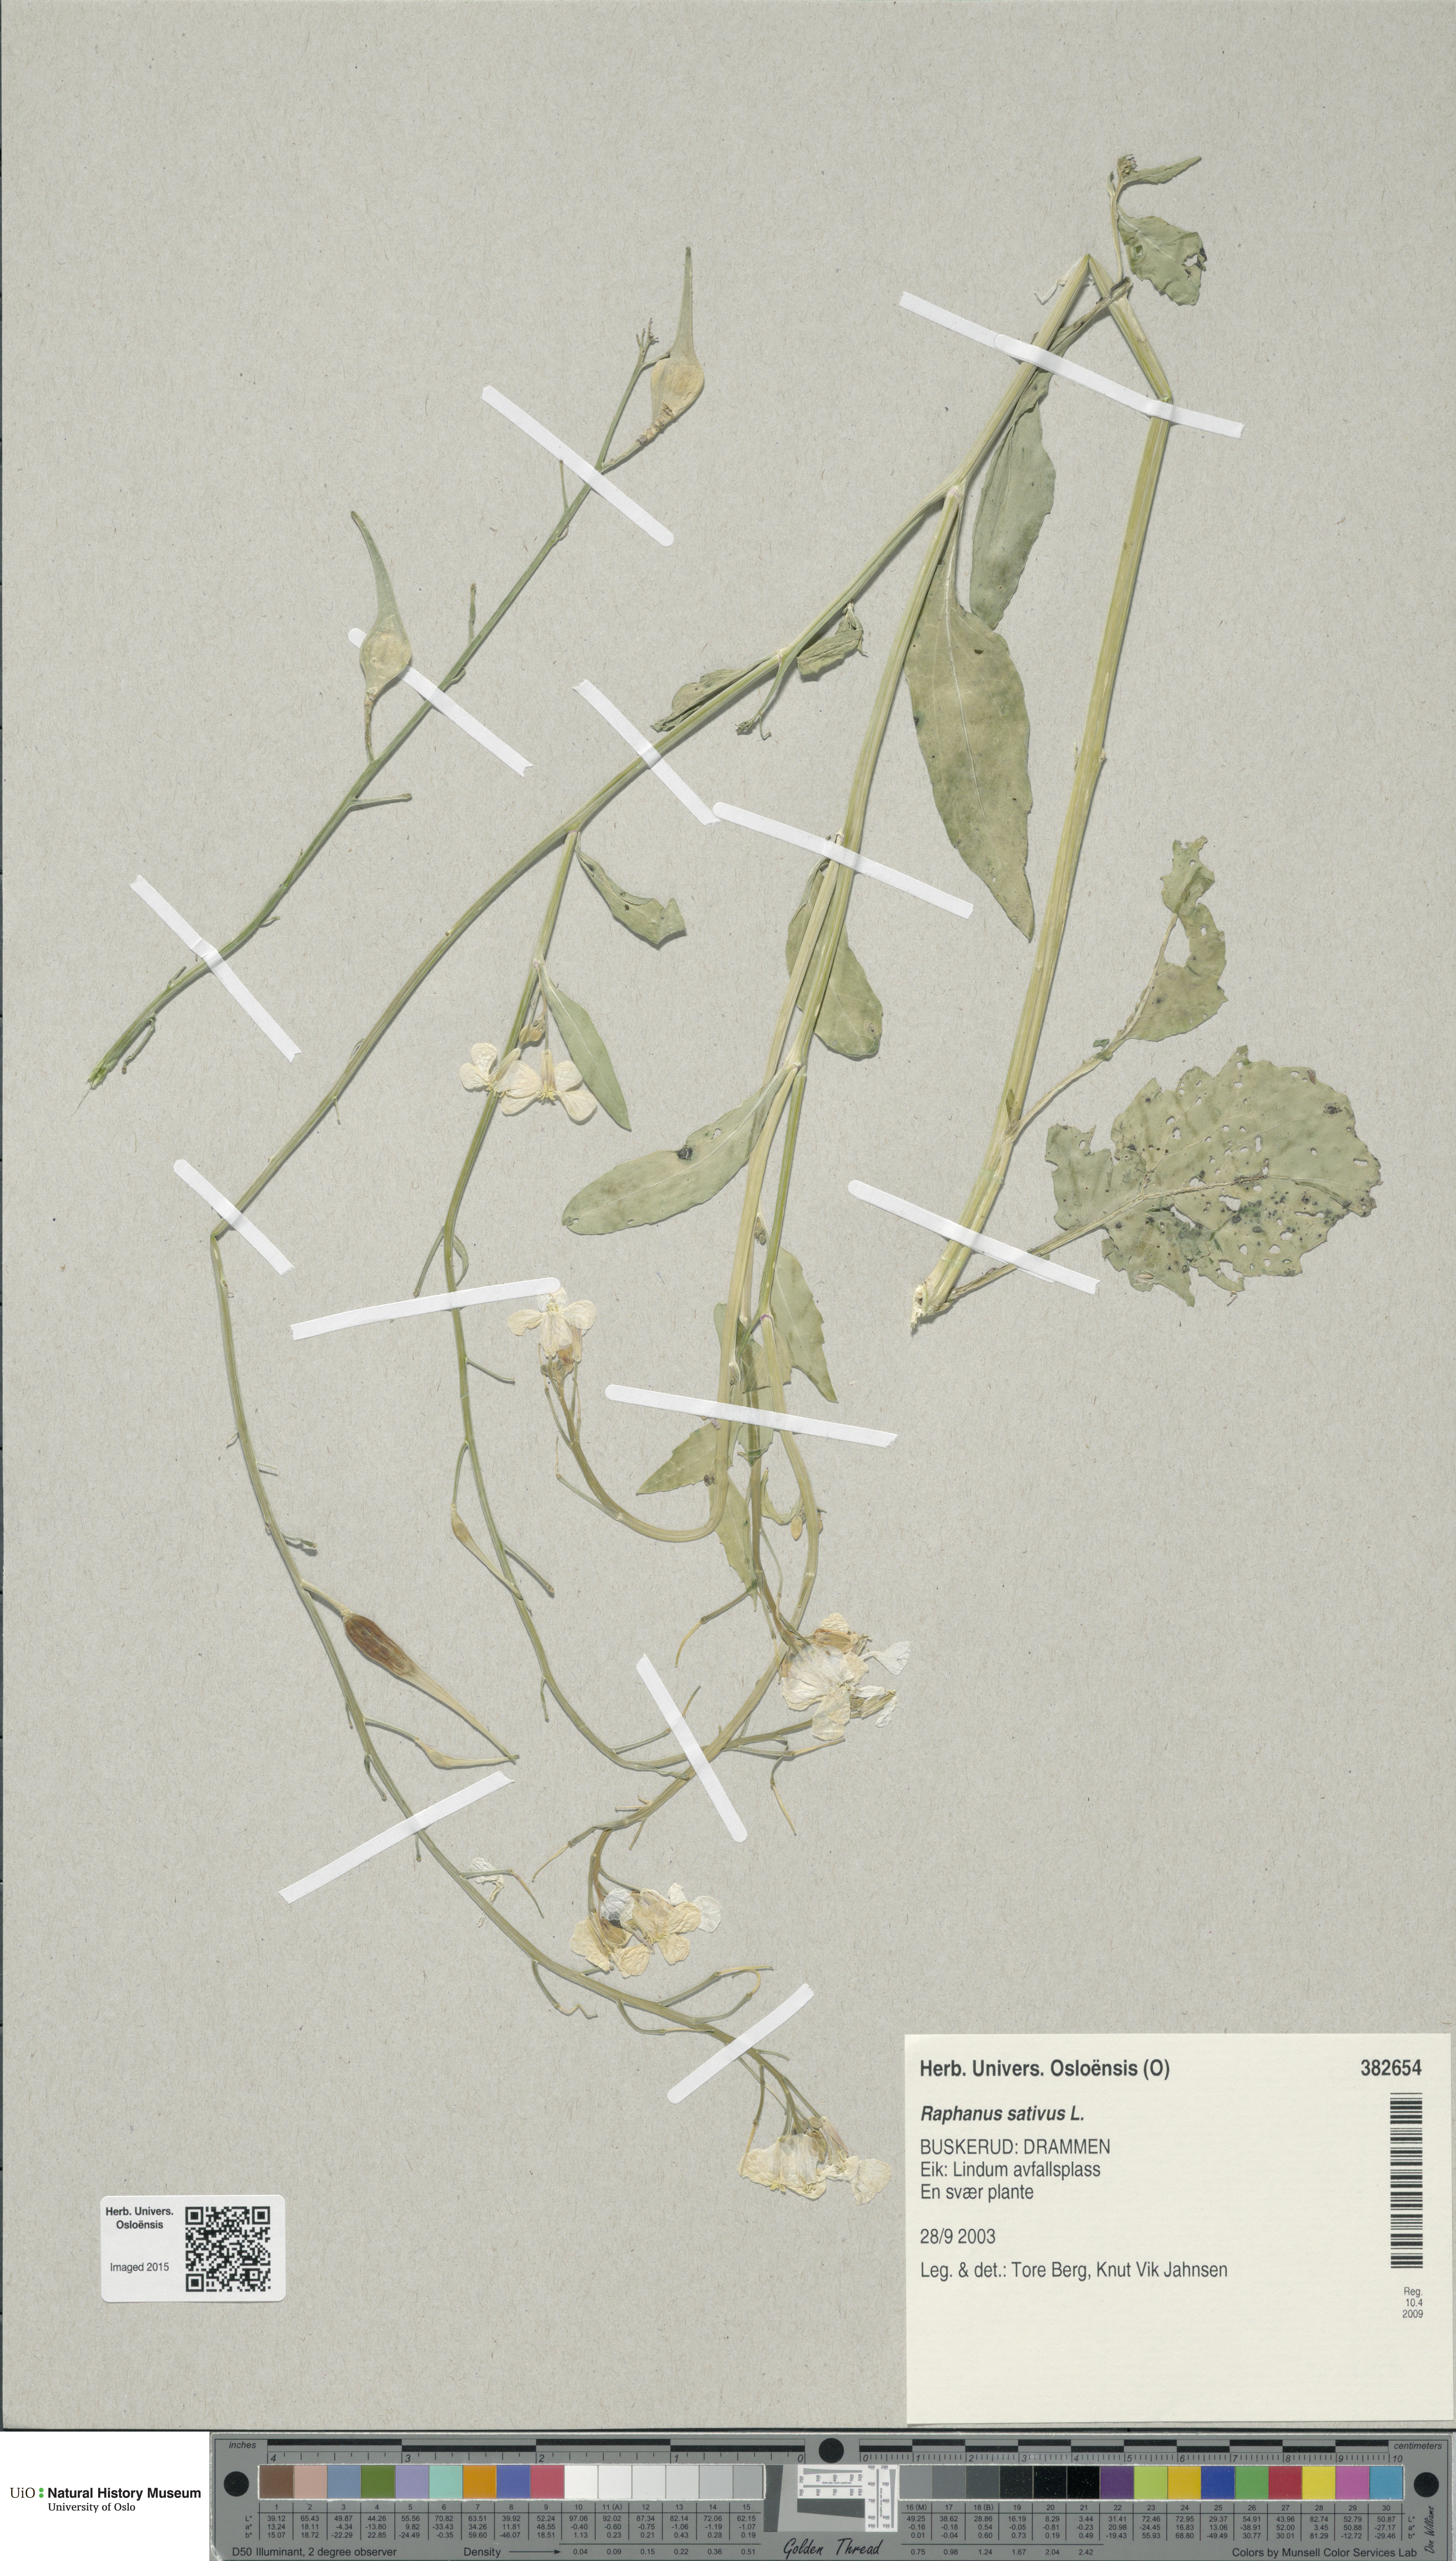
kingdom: Plantae
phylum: Tracheophyta
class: Magnoliopsida
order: Brassicales
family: Brassicaceae
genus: Raphanus
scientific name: Raphanus sativus
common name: Cultivated radish
